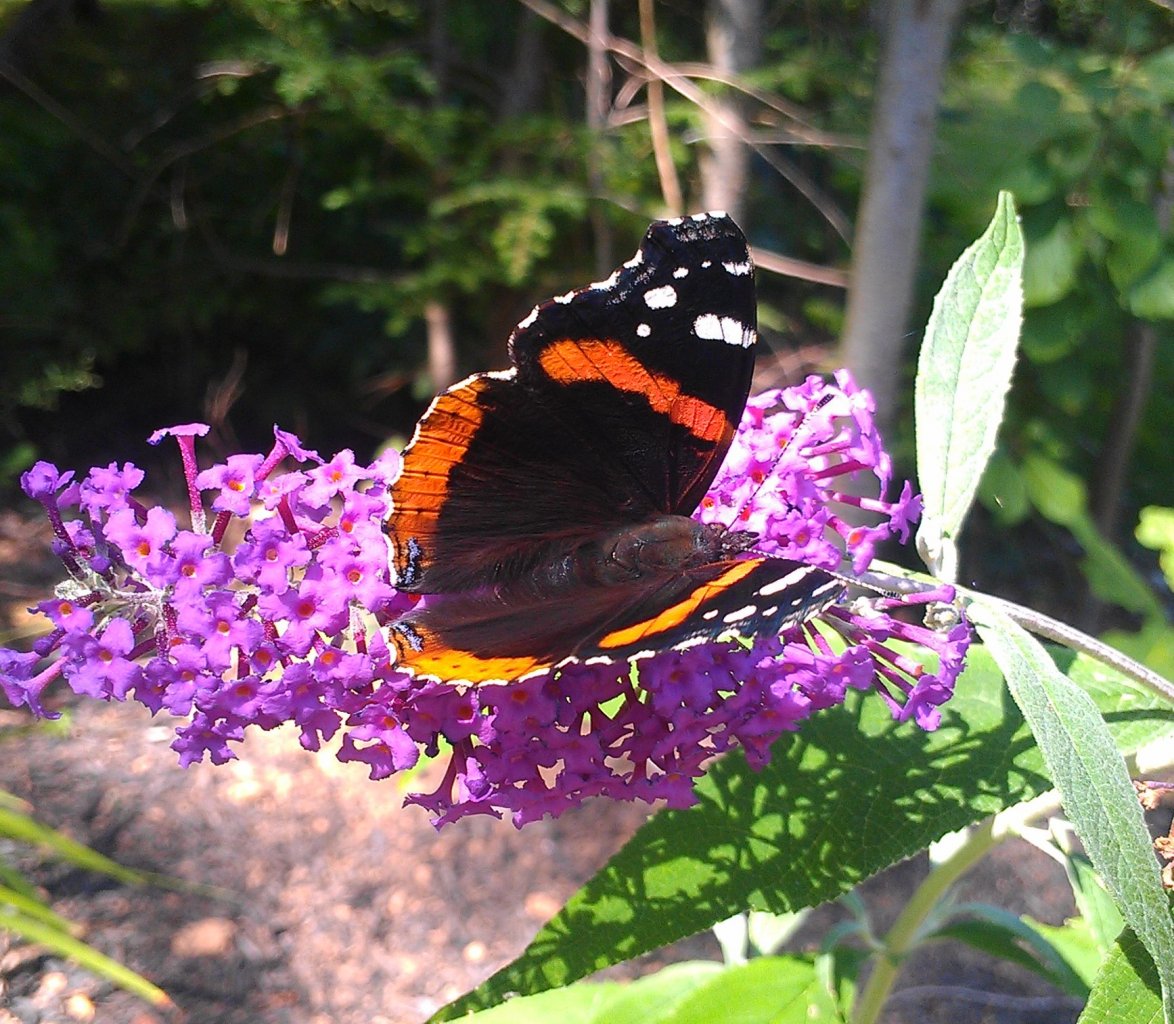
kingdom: Animalia
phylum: Arthropoda
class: Insecta
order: Lepidoptera
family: Nymphalidae
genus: Vanessa
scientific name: Vanessa atalanta
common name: Red Admiral
